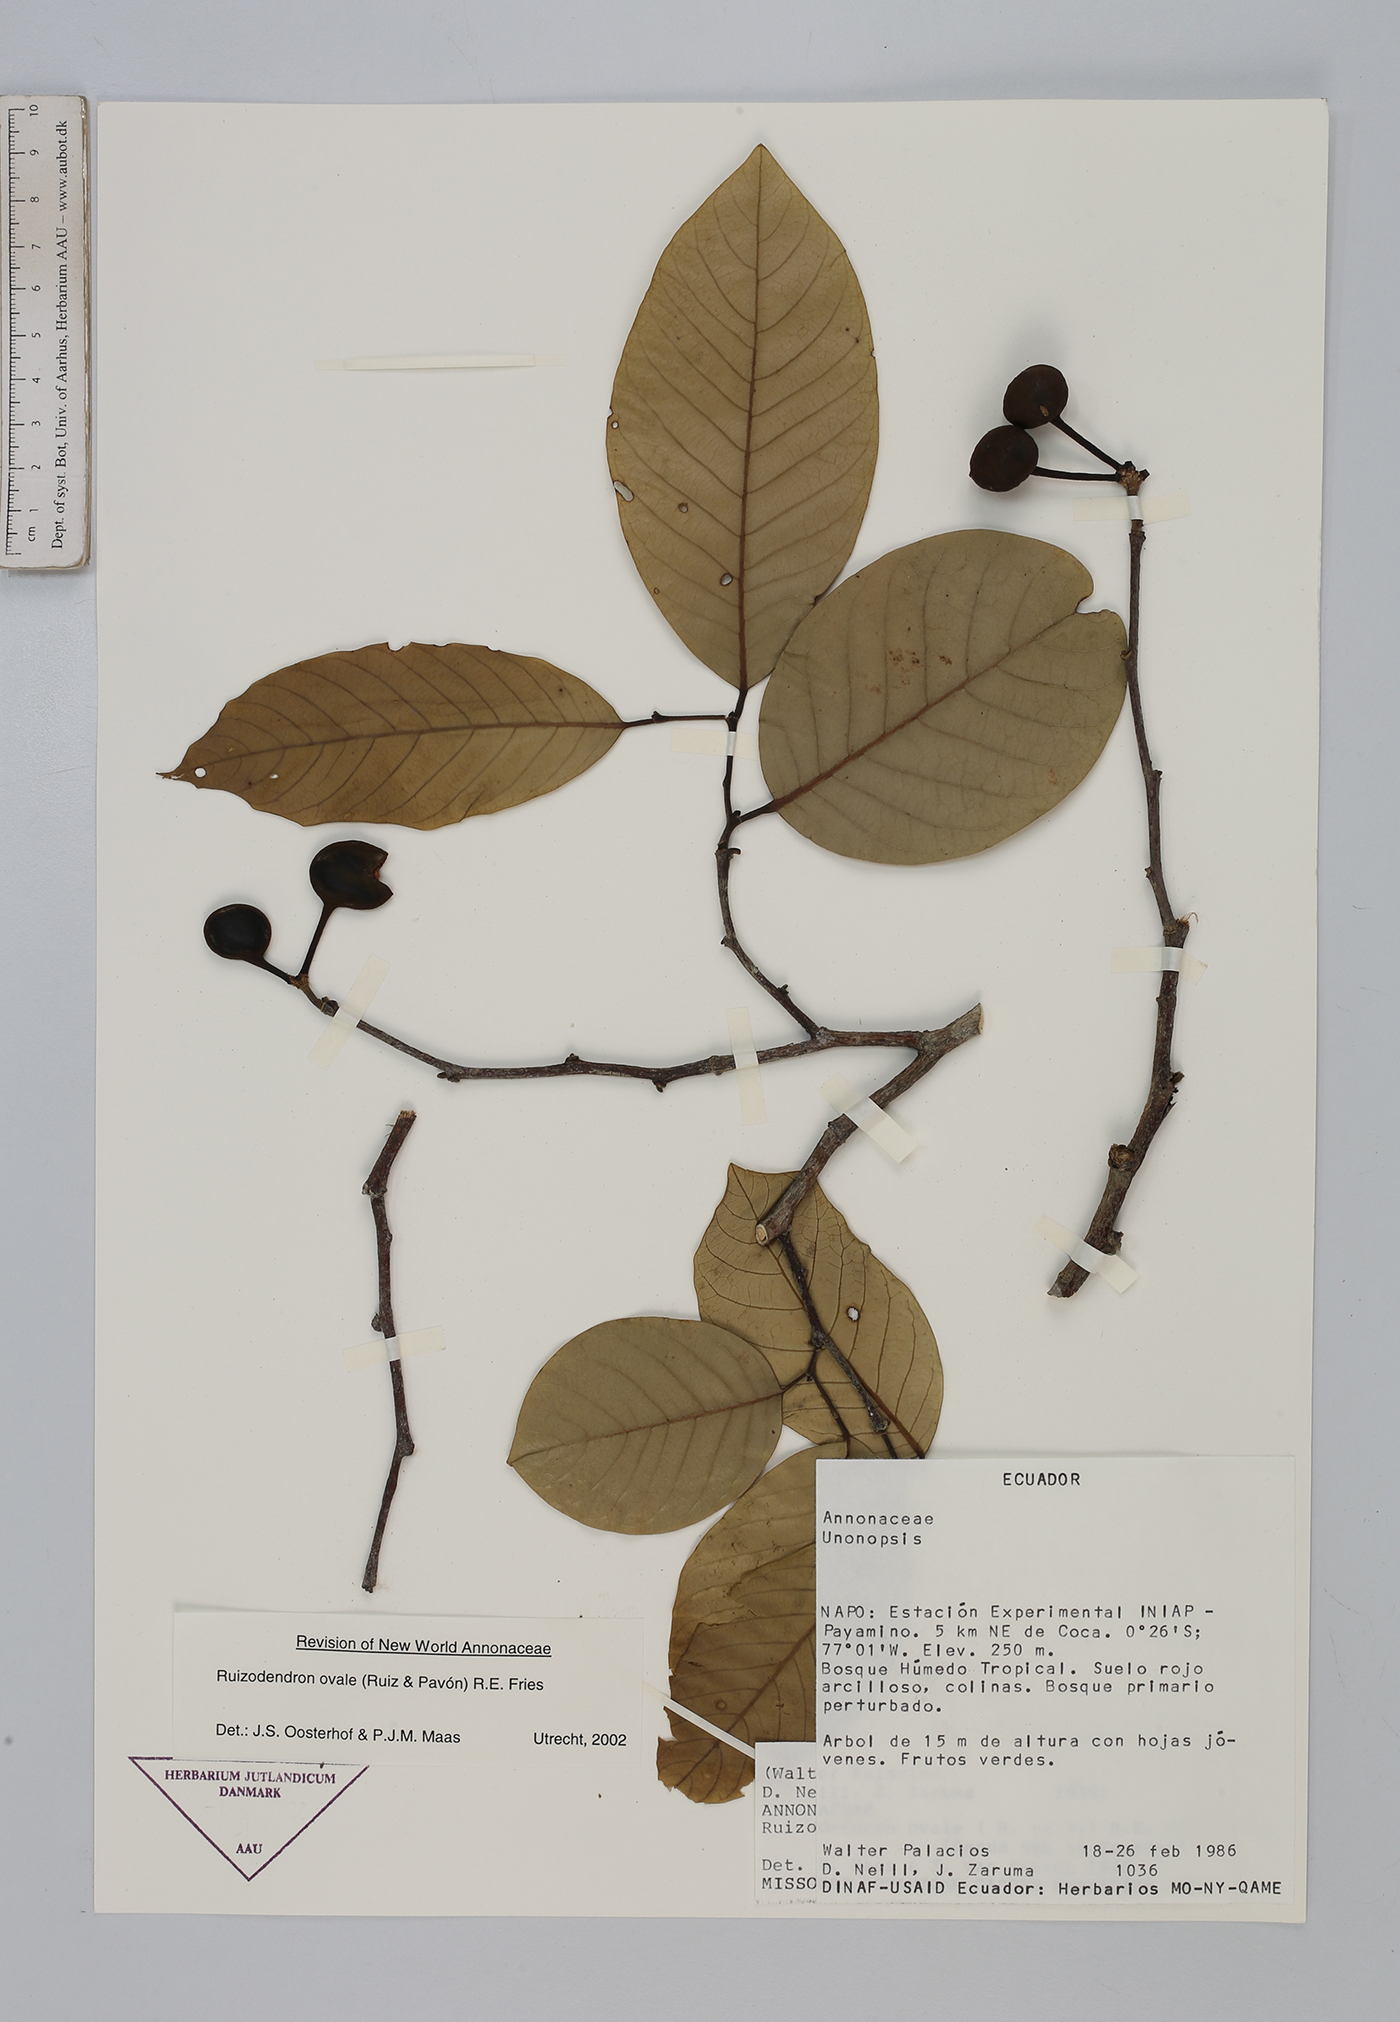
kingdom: Plantae
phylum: Tracheophyta
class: Magnoliopsida
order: Magnoliales
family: Annonaceae
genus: Ruizodendron
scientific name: Ruizodendron ovale
